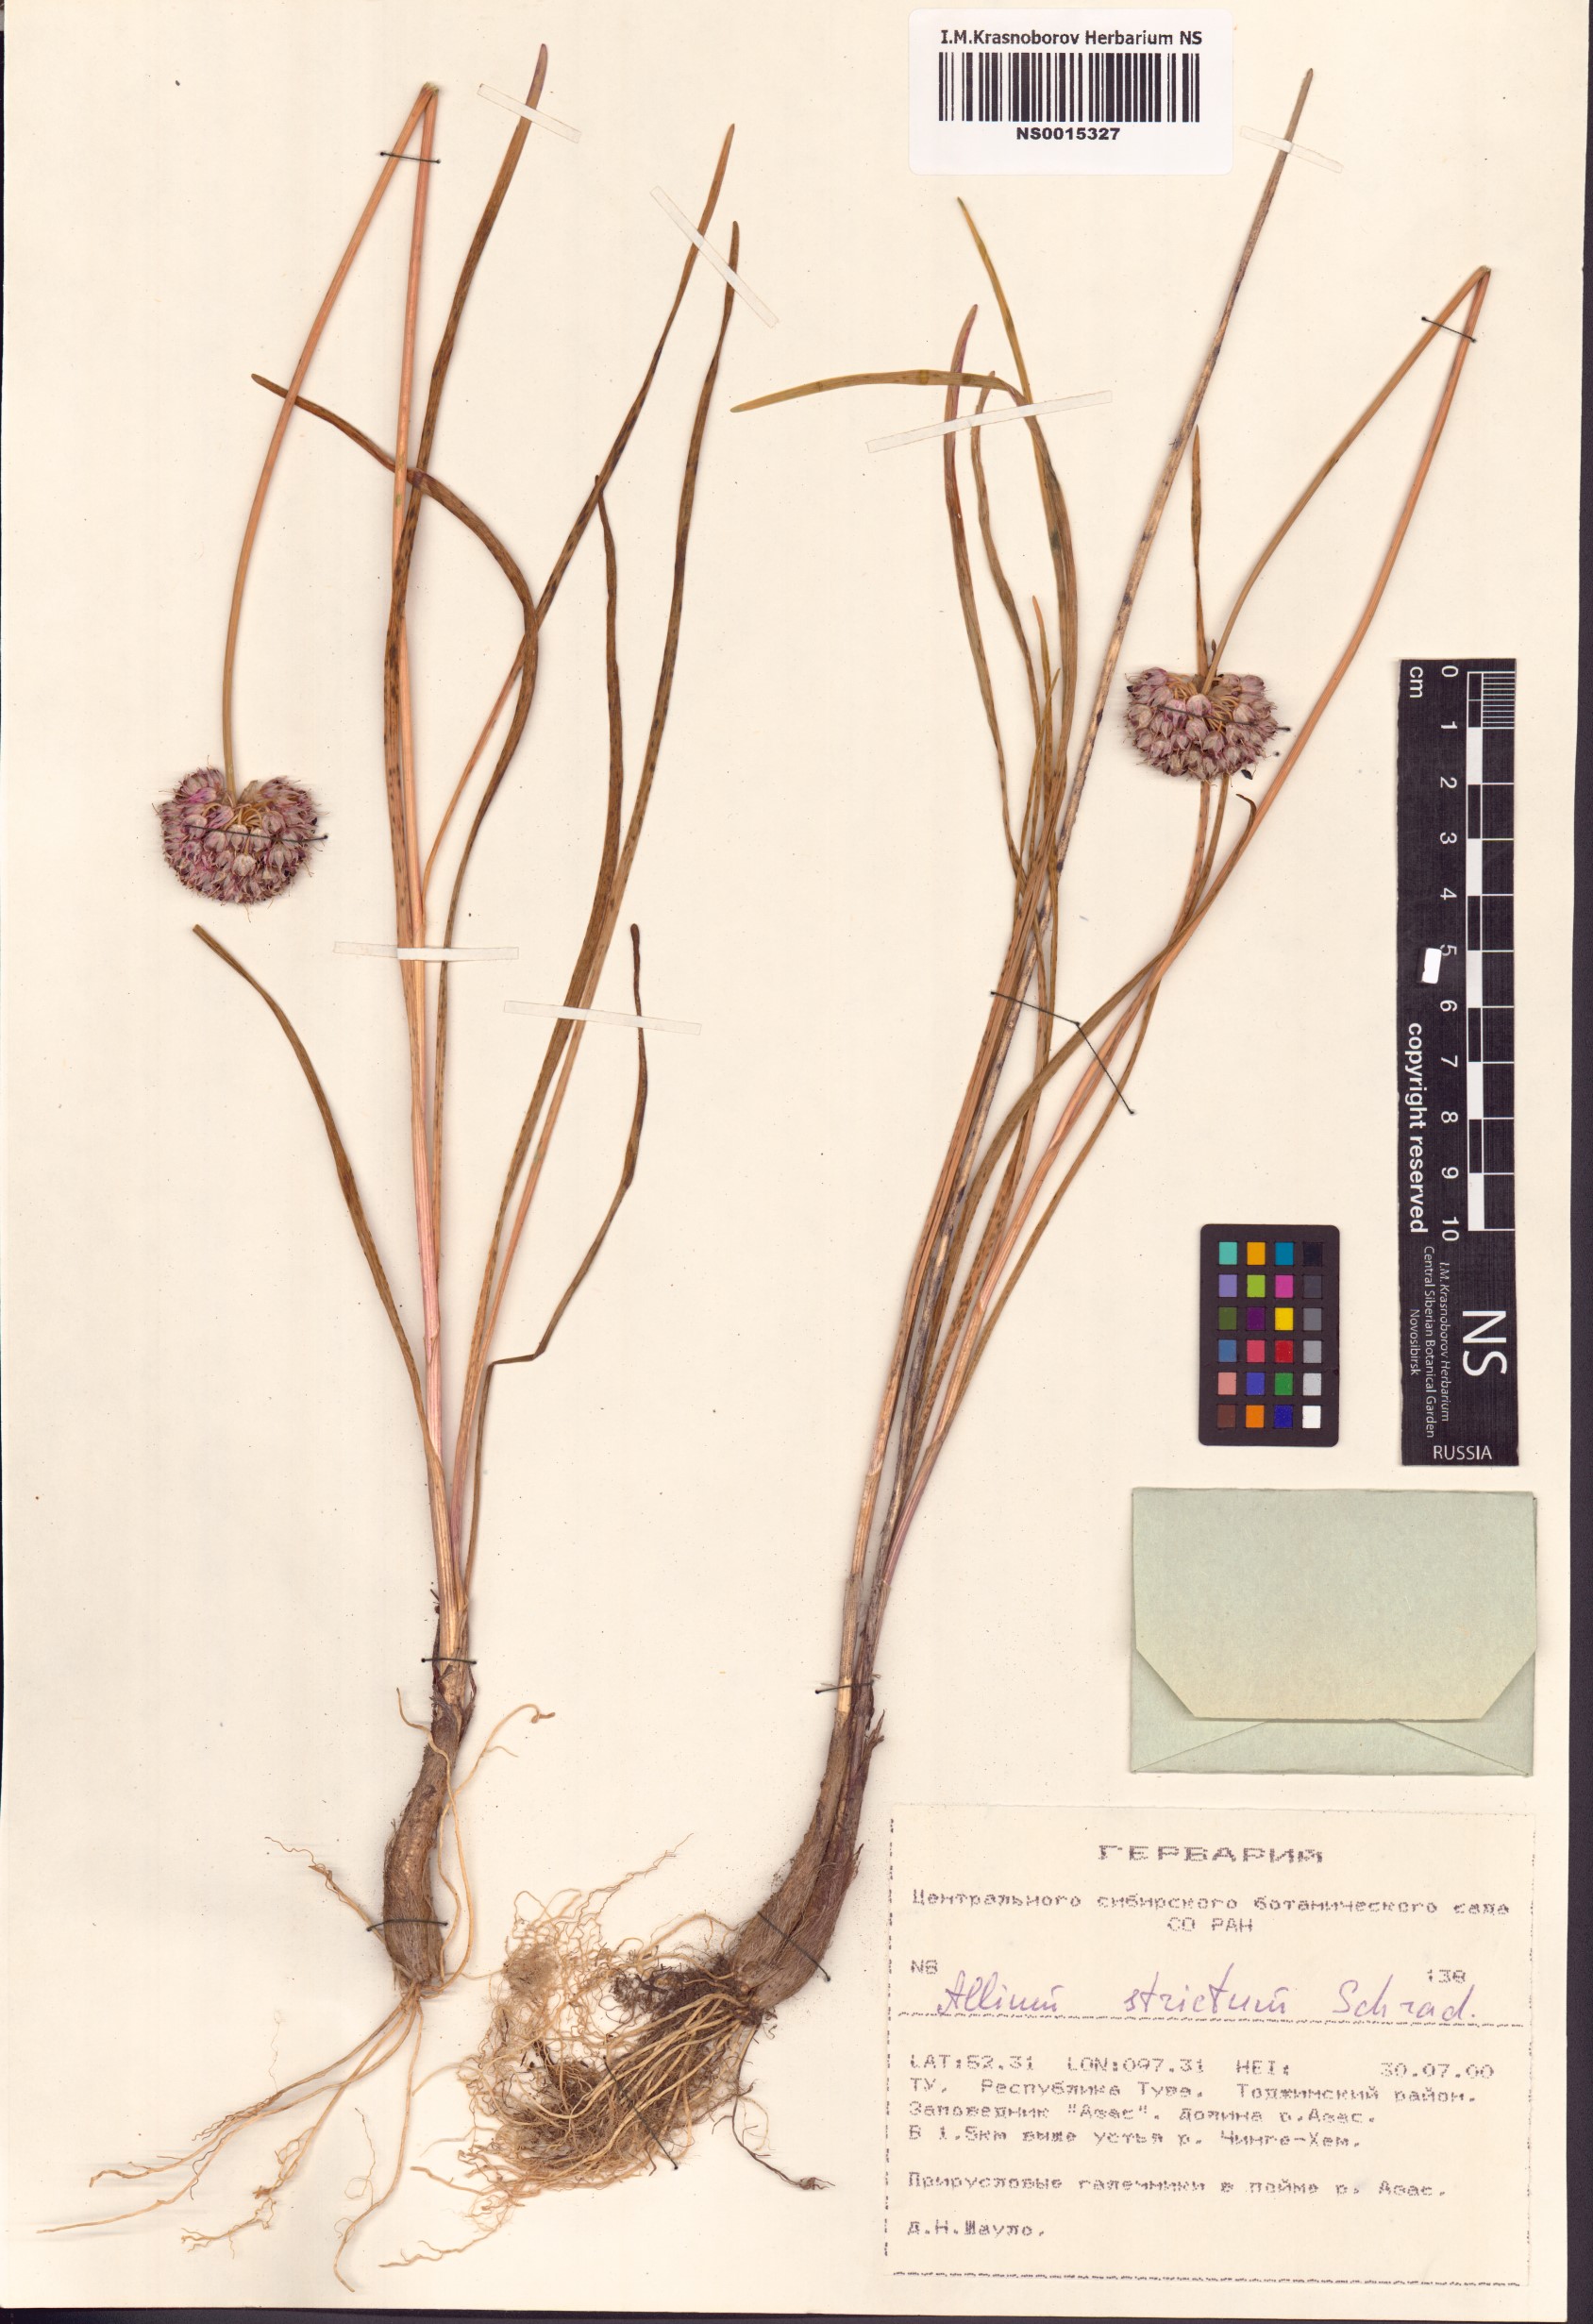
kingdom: Plantae
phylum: Tracheophyta
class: Liliopsida
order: Asparagales
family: Amaryllidaceae
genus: Allium
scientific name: Allium strictum
